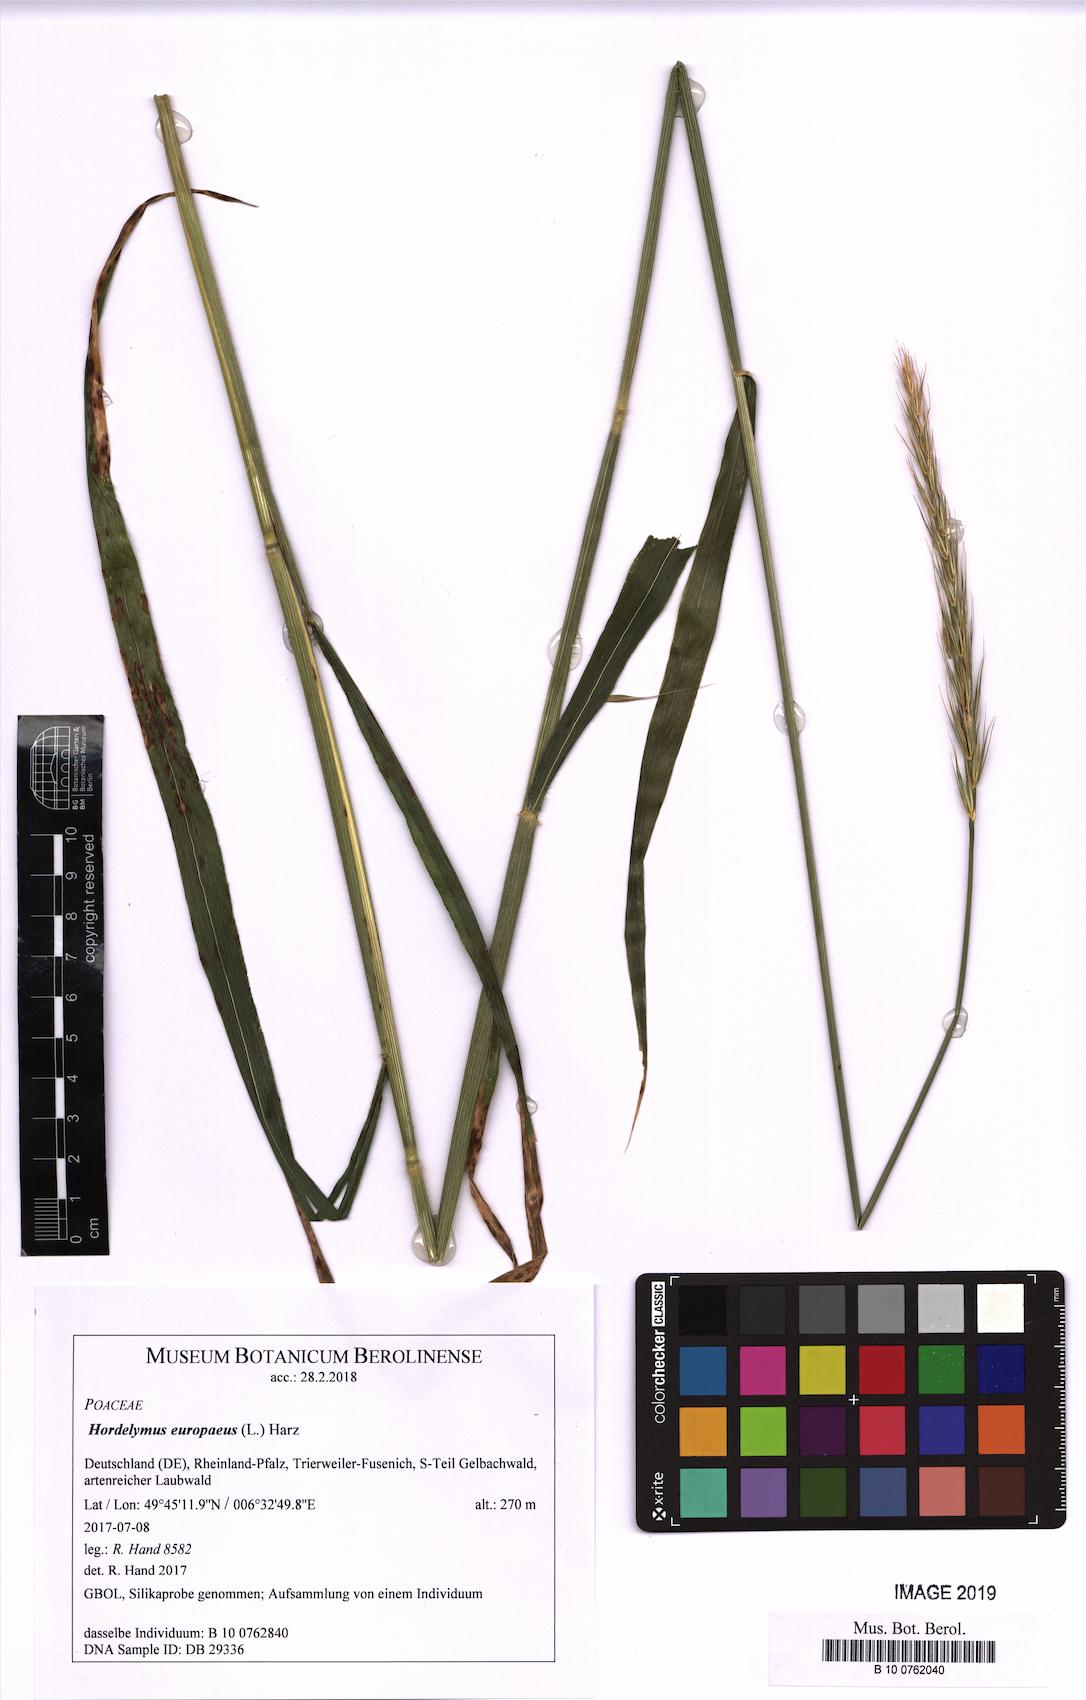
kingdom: Plantae
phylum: Tracheophyta
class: Liliopsida
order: Poales
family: Poaceae
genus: Hordelymus
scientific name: Hordelymus europaeus
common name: Wood-barley
